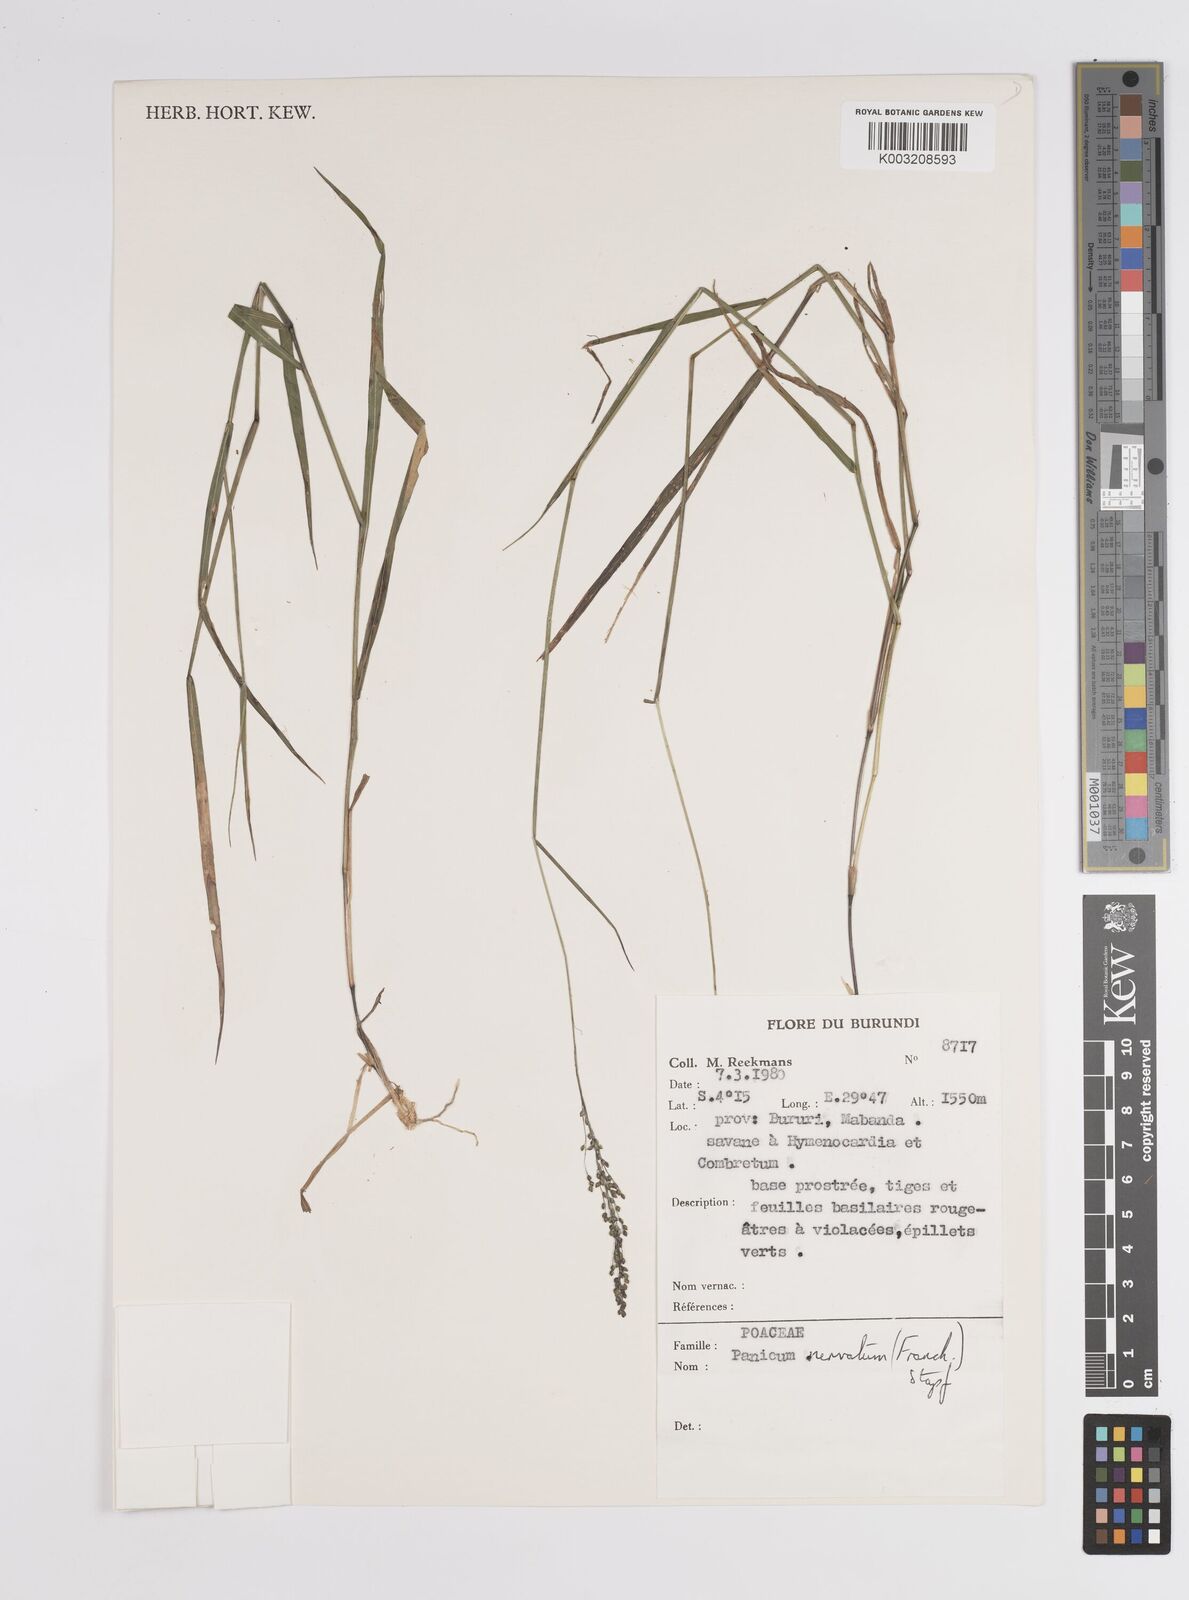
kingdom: Plantae
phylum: Tracheophyta
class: Liliopsida
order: Poales
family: Poaceae
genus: Trichanthecium
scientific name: Trichanthecium nervatum
